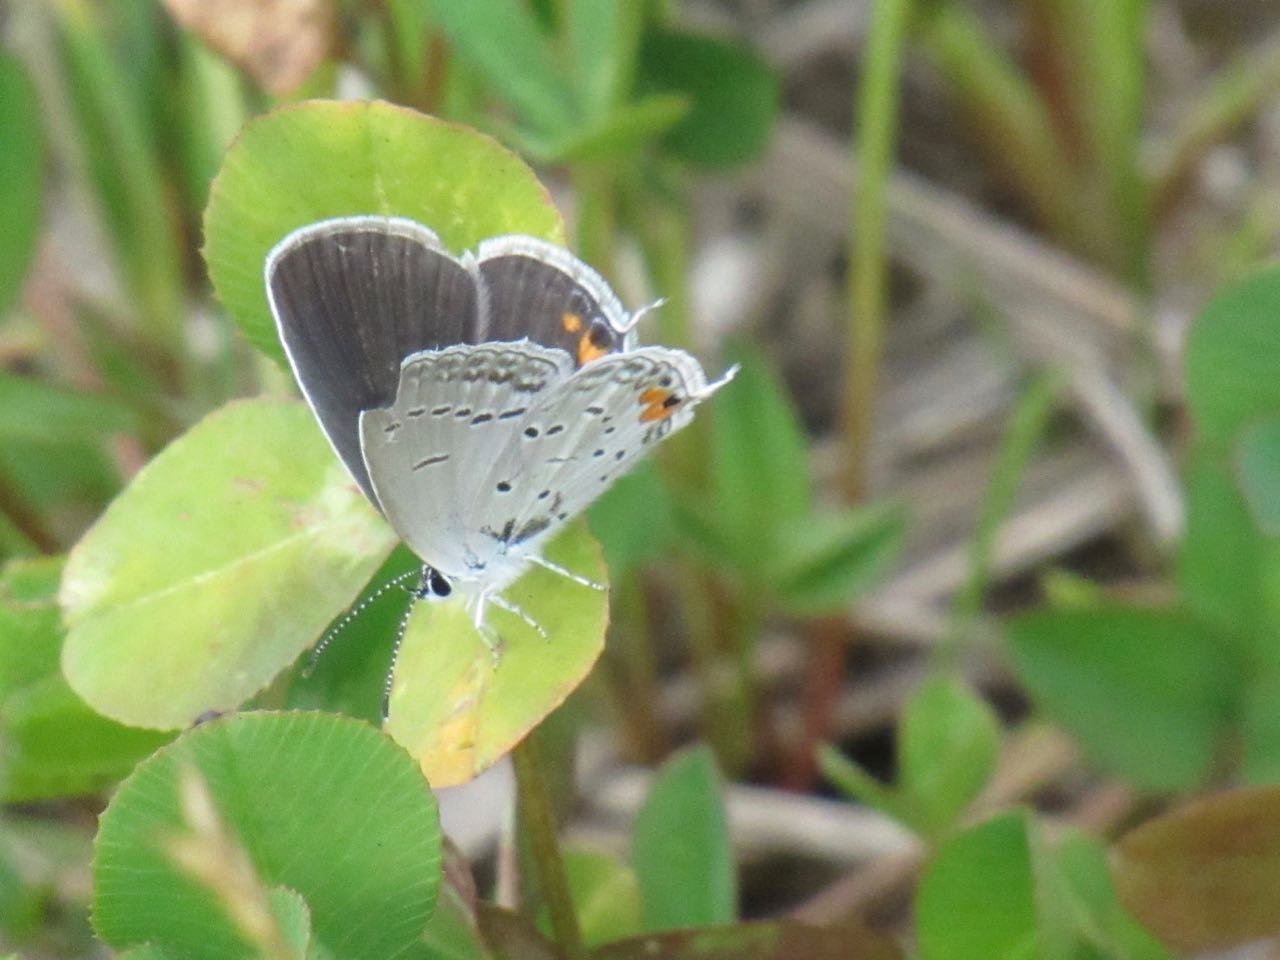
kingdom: Animalia
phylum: Arthropoda
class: Insecta
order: Lepidoptera
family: Lycaenidae
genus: Elkalyce
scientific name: Elkalyce comyntas
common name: Eastern Tailed-Blue
